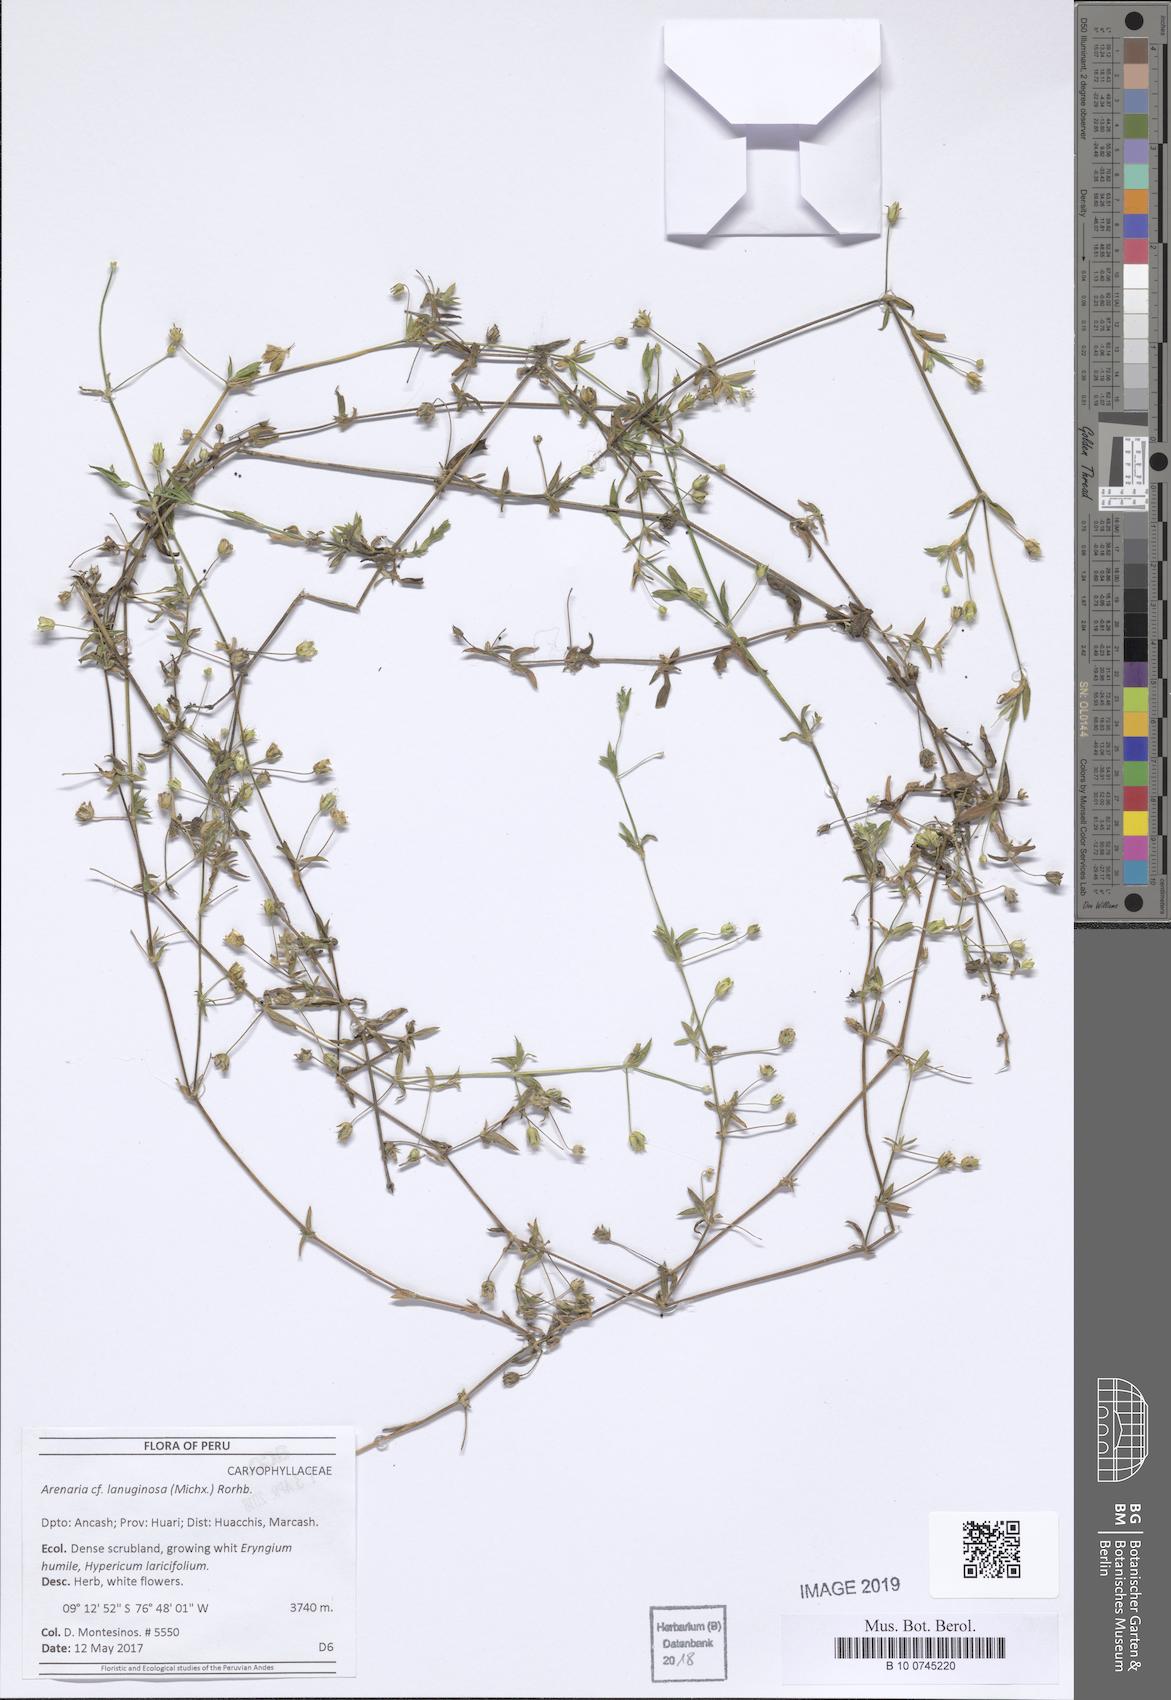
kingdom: Plantae
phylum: Tracheophyta
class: Magnoliopsida
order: Caryophyllales
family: Caryophyllaceae
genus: Arenaria
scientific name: Arenaria lanuginosa
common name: Spread sandwort
